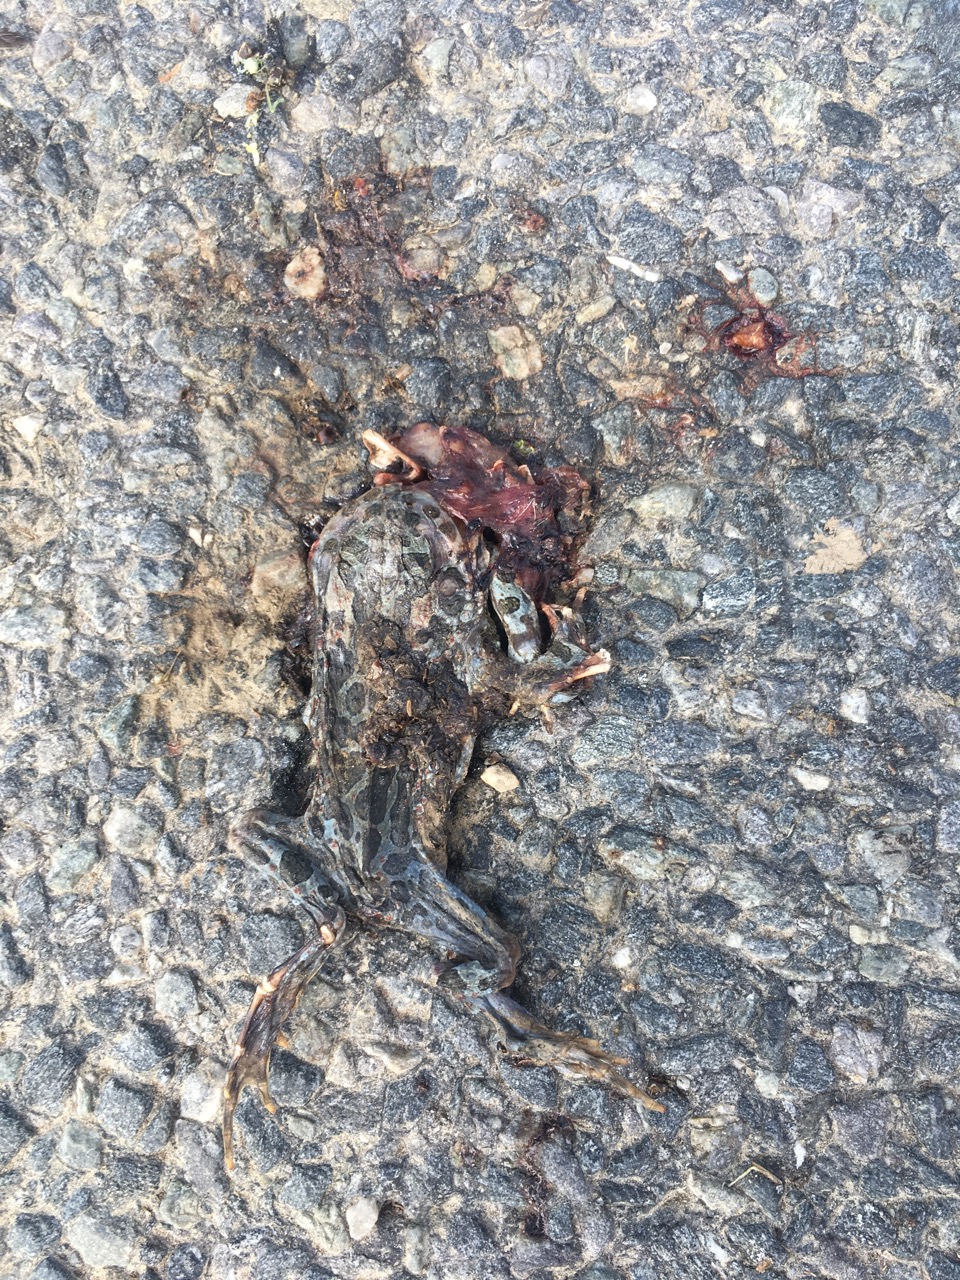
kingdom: Animalia
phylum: Chordata
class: Amphibia
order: Anura
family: Bufonidae
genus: Bufotes
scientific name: Bufotes viridis
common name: European green toad
